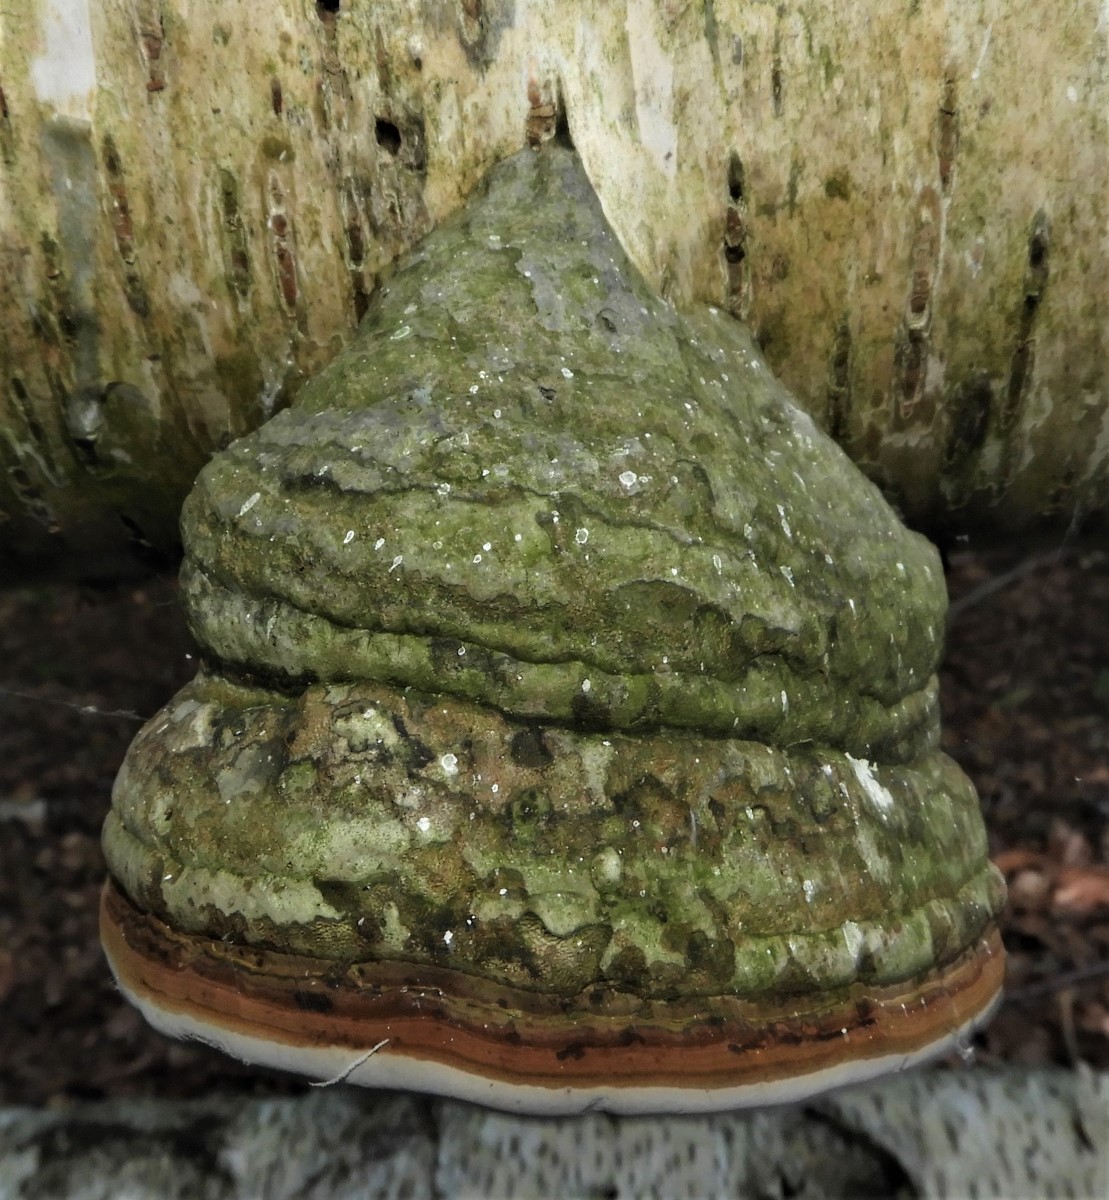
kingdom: Fungi
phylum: Basidiomycota
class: Agaricomycetes
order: Polyporales
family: Polyporaceae
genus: Fomes
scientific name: Fomes fomentarius
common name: tøndersvamp
